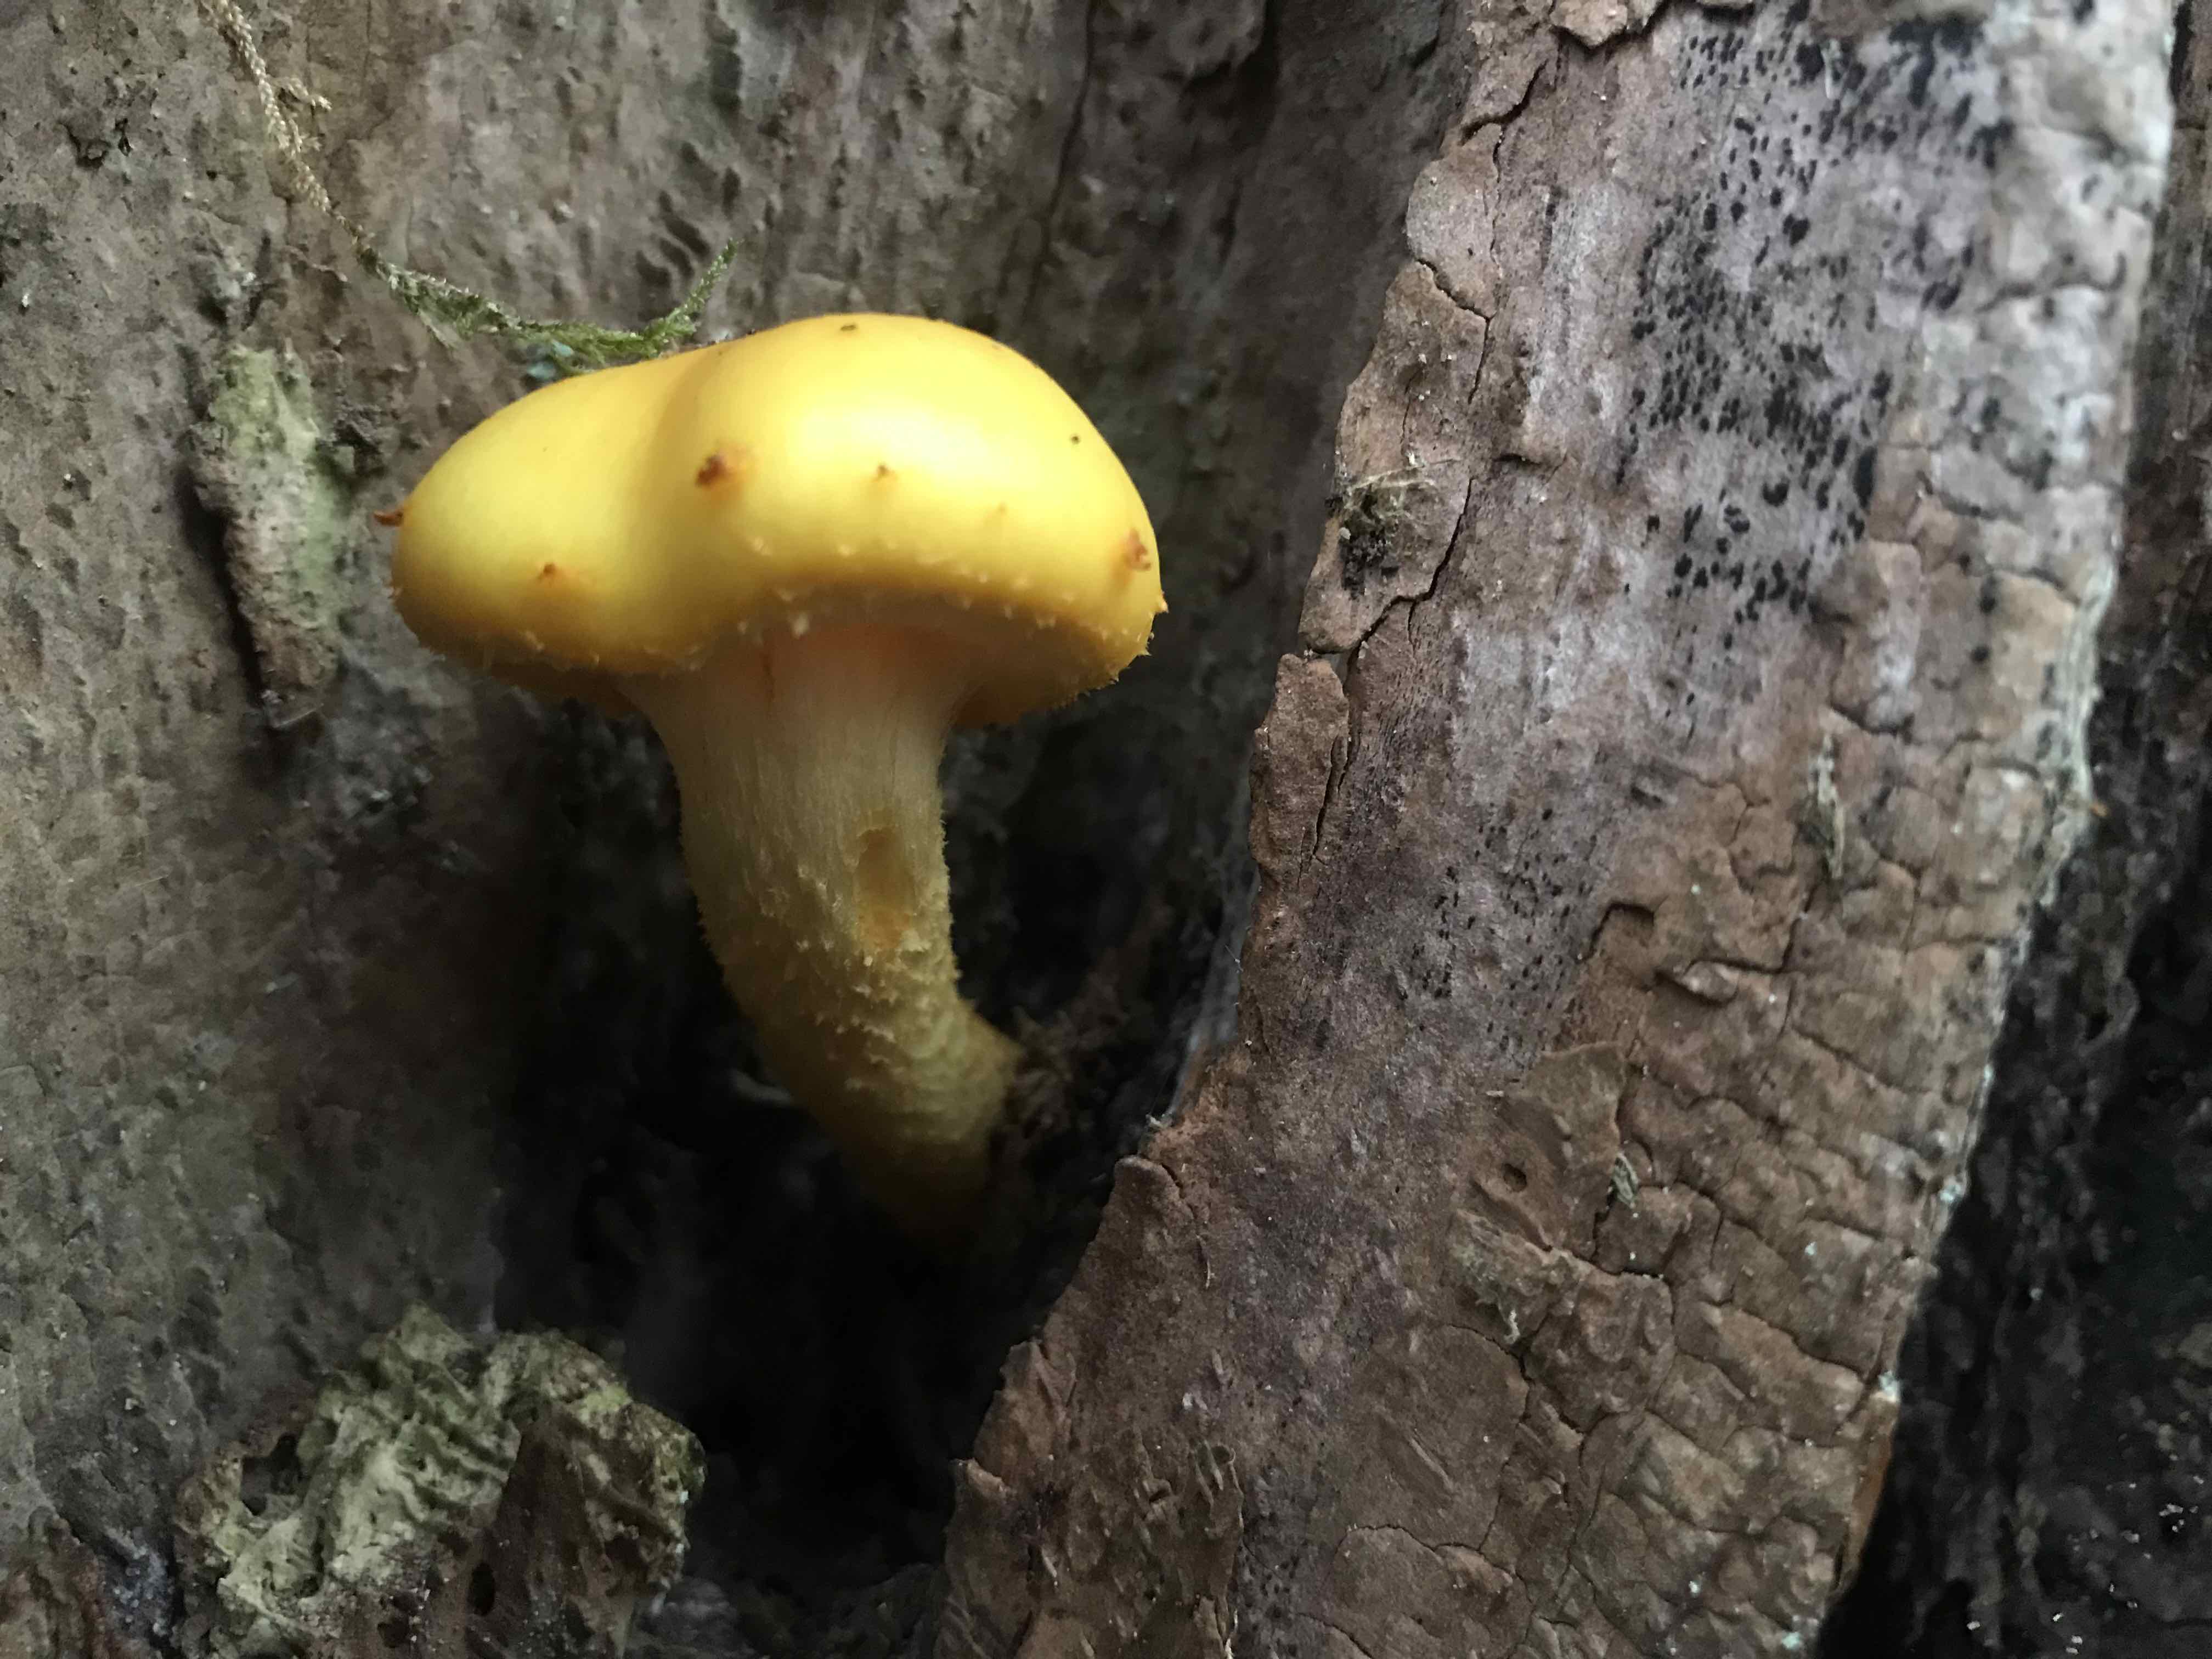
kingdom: Fungi
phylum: Basidiomycota
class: Agaricomycetes
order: Agaricales
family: Strophariaceae
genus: Pholiota
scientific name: Pholiota adiposa
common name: højtsiddende skælhat
